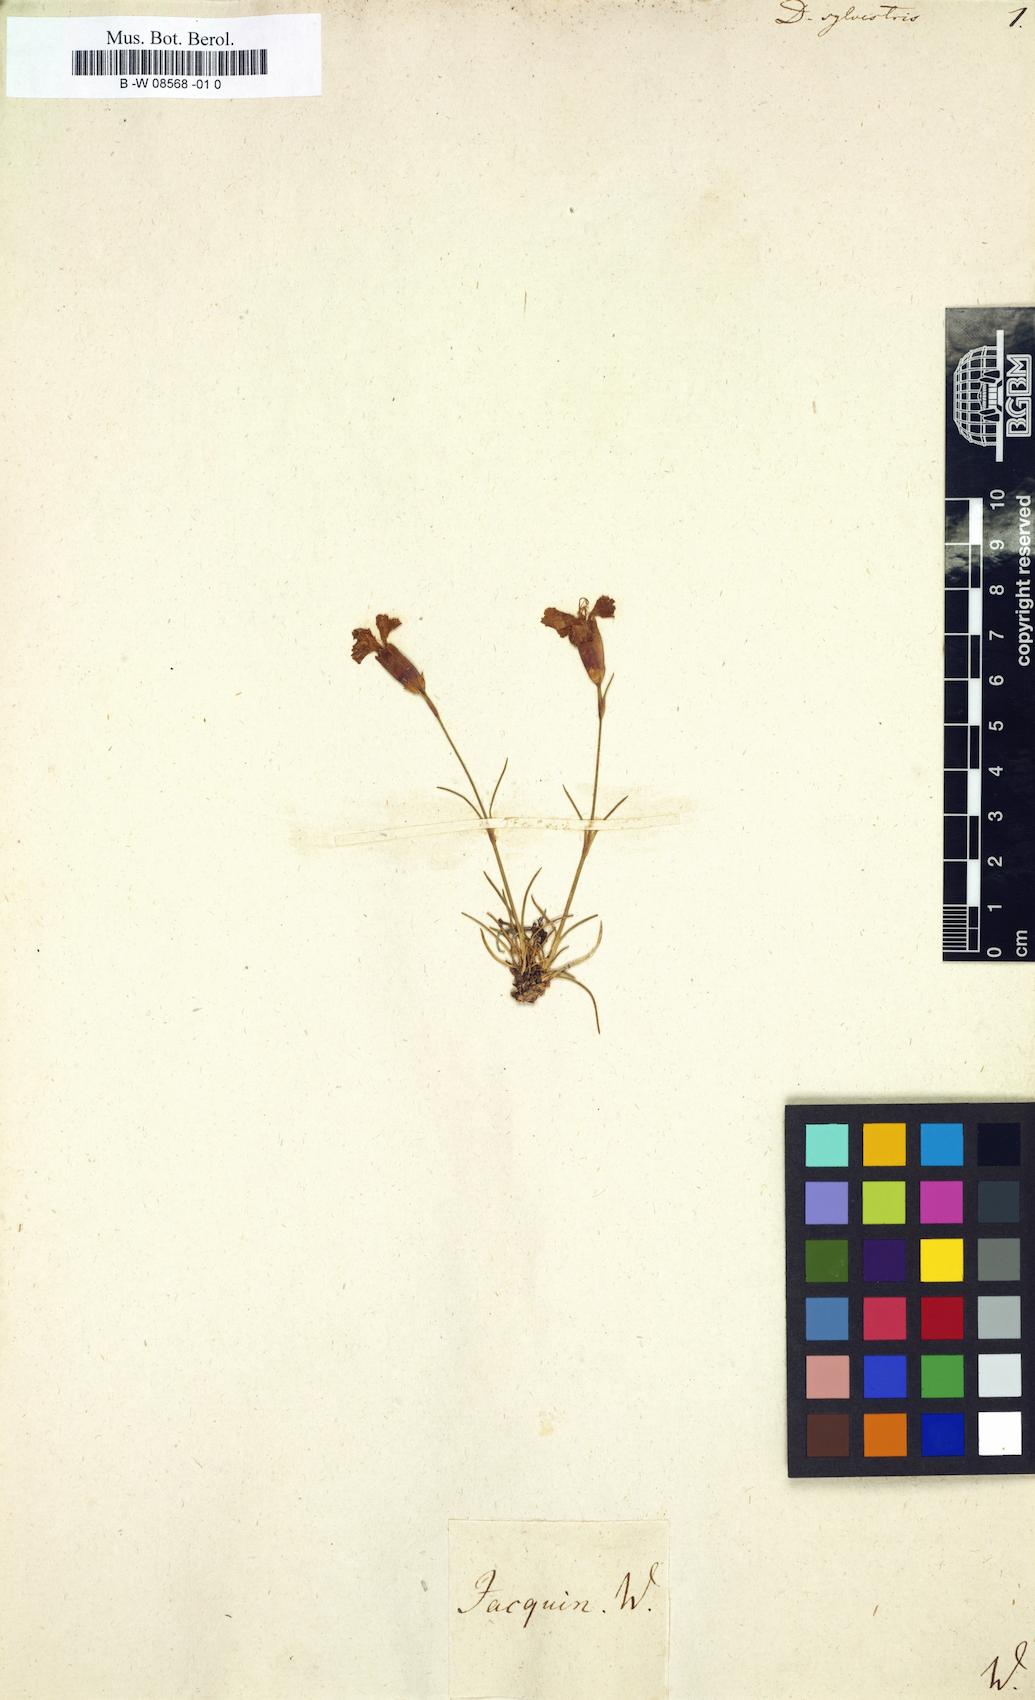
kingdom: Plantae
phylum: Tracheophyta
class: Magnoliopsida
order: Caryophyllales
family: Caryophyllaceae
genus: Dianthus
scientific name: Dianthus sylvestris
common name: Wood pink
